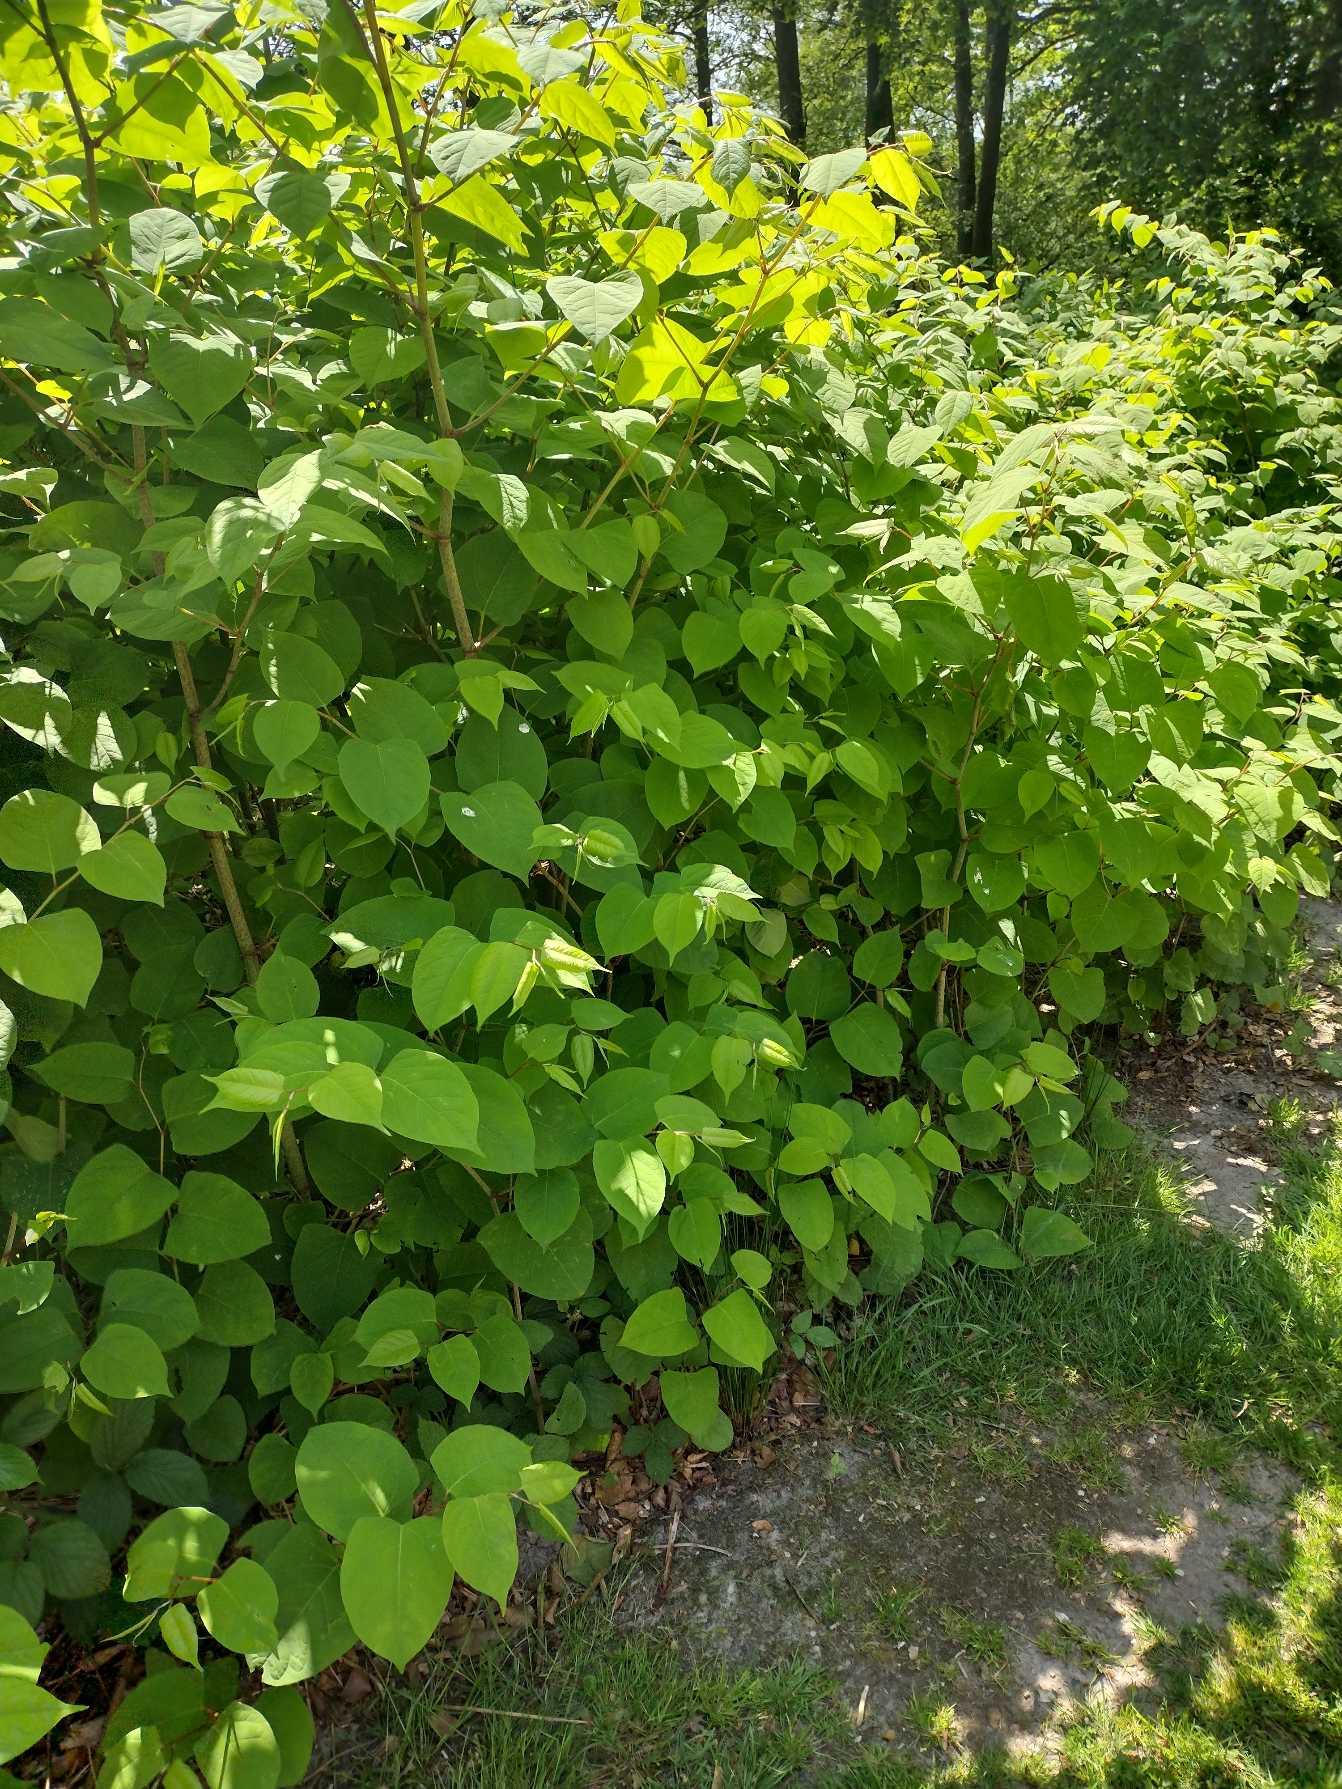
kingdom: Plantae
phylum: Tracheophyta
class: Magnoliopsida
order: Caryophyllales
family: Polygonaceae
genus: Reynoutria
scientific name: Reynoutria japonica
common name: Japan-pileurt
